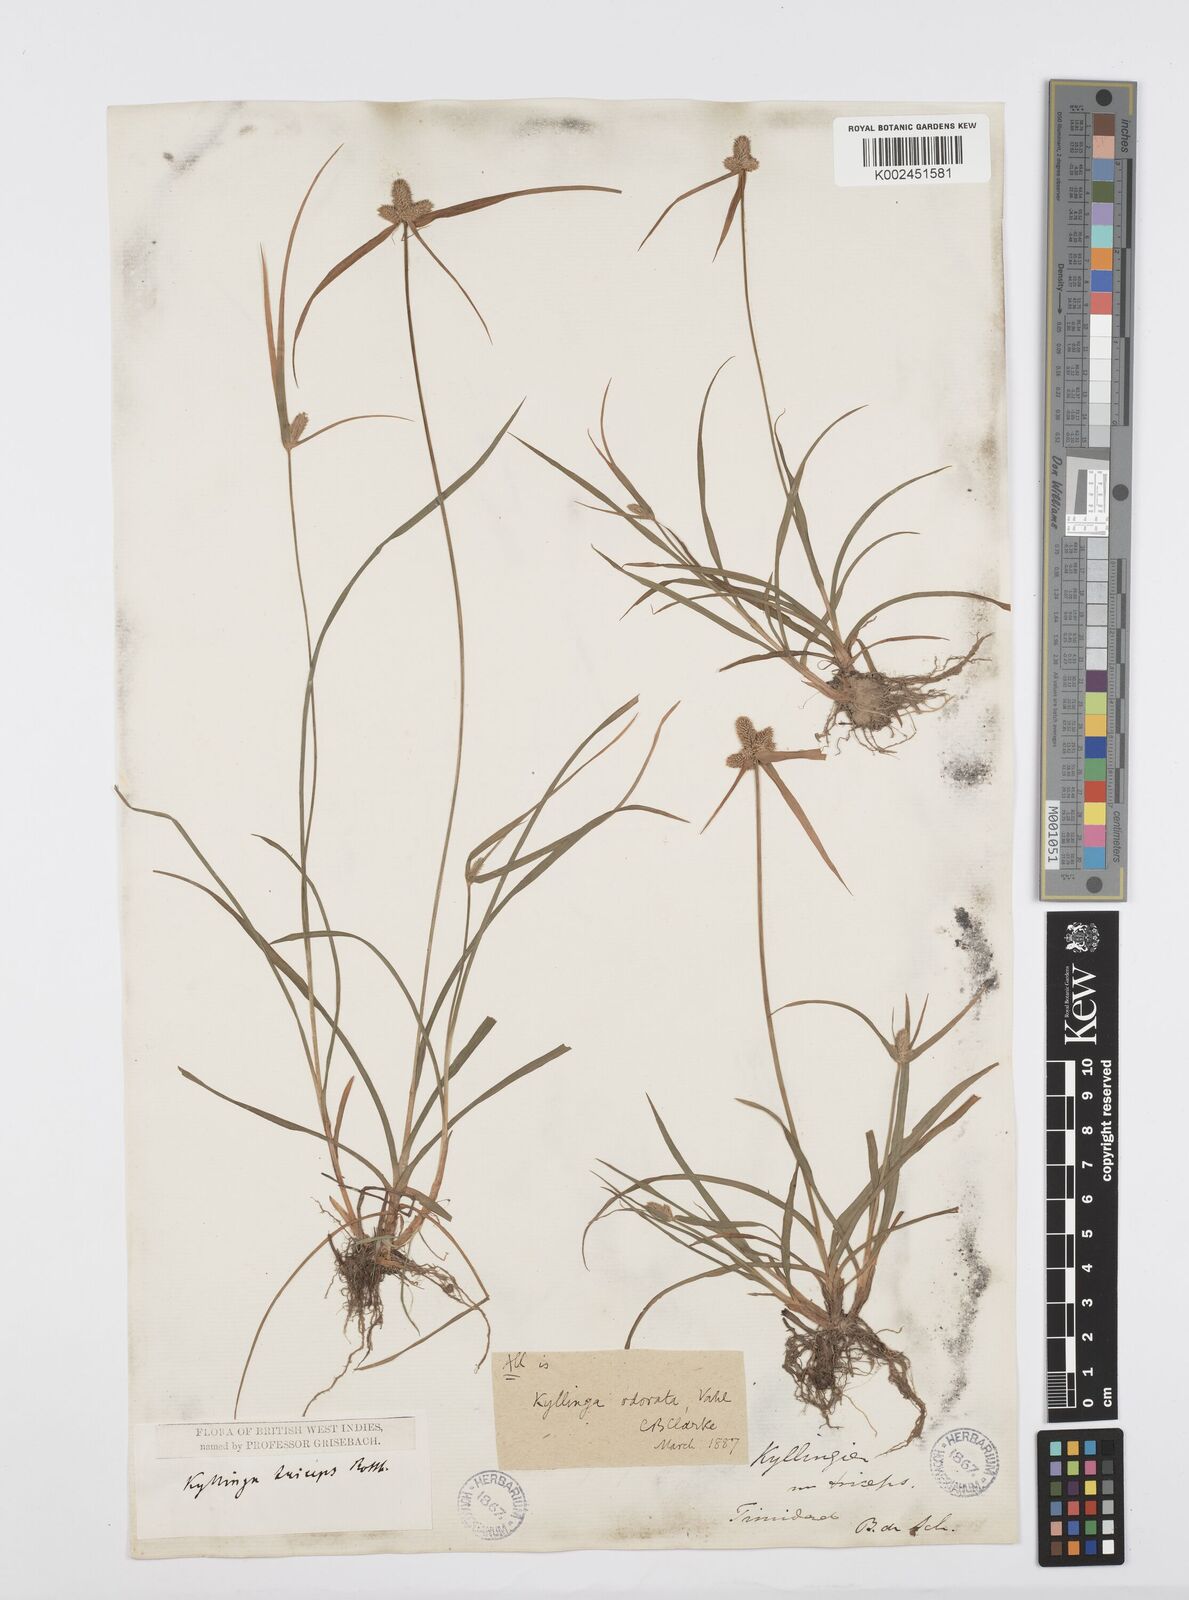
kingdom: Plantae
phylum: Tracheophyta
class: Liliopsida
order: Poales
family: Cyperaceae
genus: Cyperus
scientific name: Cyperus
